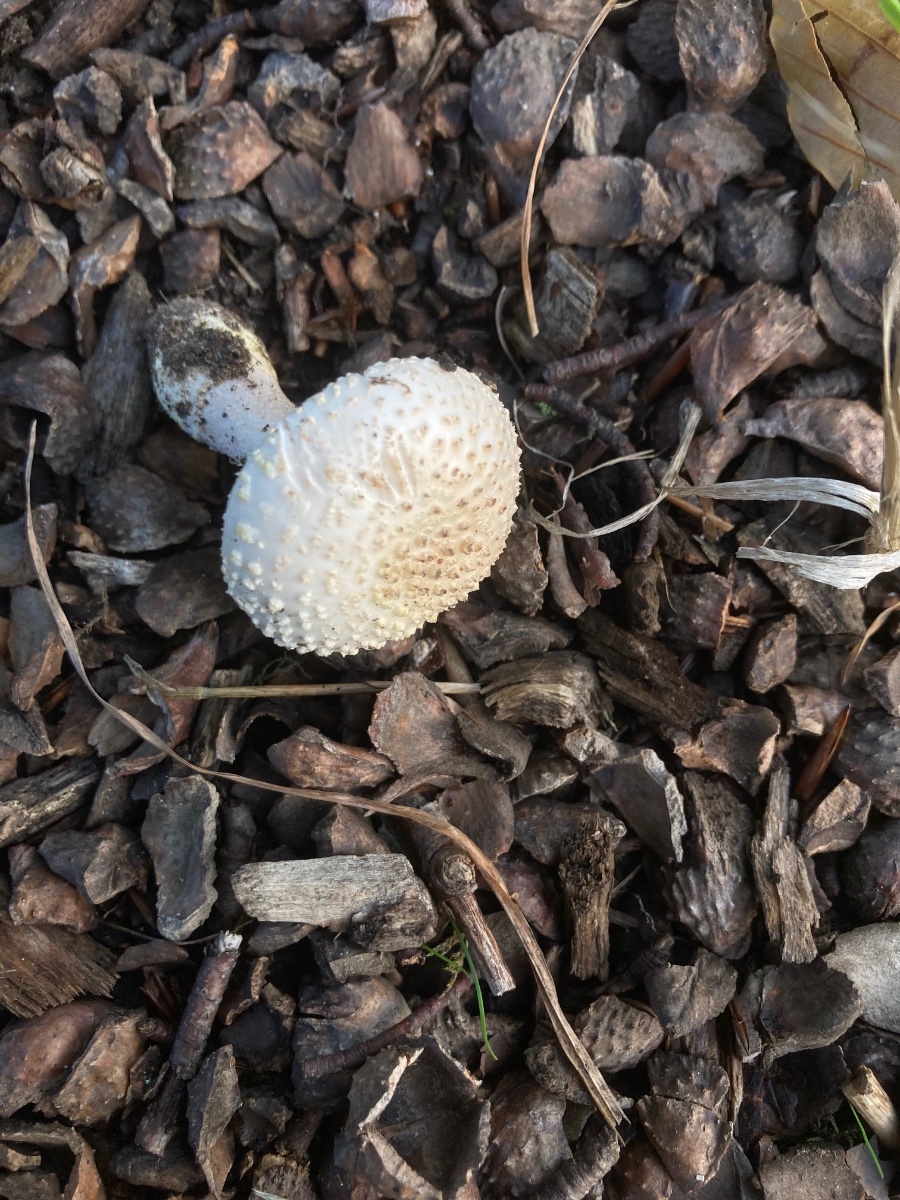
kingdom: Fungi
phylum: Basidiomycota
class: Agaricomycetes
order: Agaricales
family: Amanitaceae
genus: Amanita
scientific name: Amanita franchetii
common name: gulrandet fluesvamp
